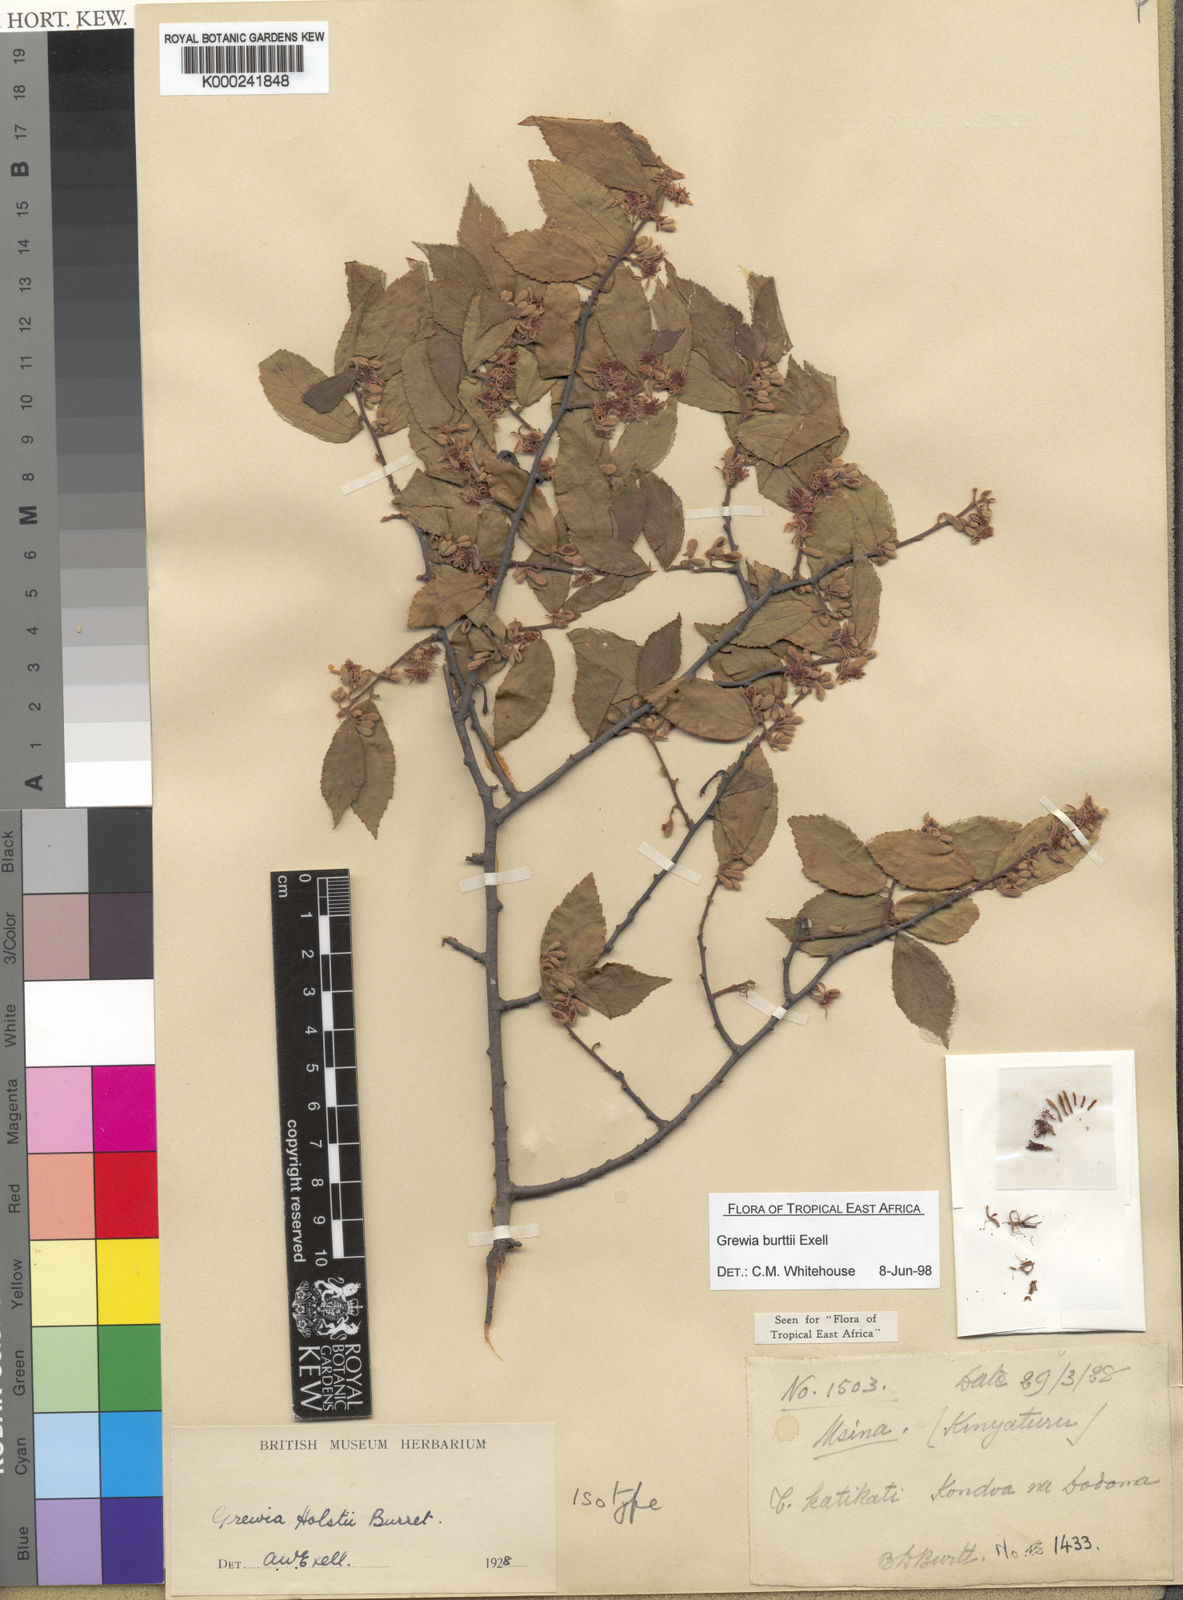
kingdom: Plantae
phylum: Tracheophyta
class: Magnoliopsida
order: Malvales
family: Malvaceae
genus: Grewia
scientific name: Grewia burttii
